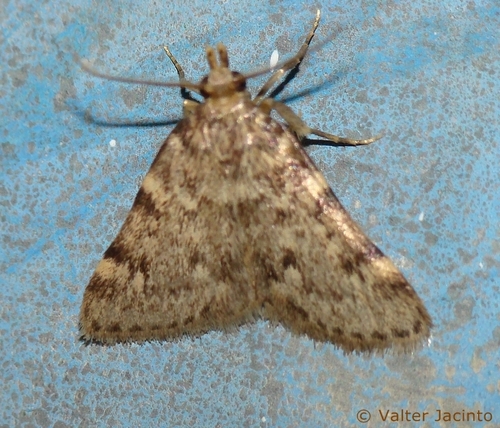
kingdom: Animalia
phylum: Arthropoda
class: Insecta
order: Lepidoptera
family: Pyralidae
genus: Aglossa
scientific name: Aglossa pinguinalis
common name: Large tabby
